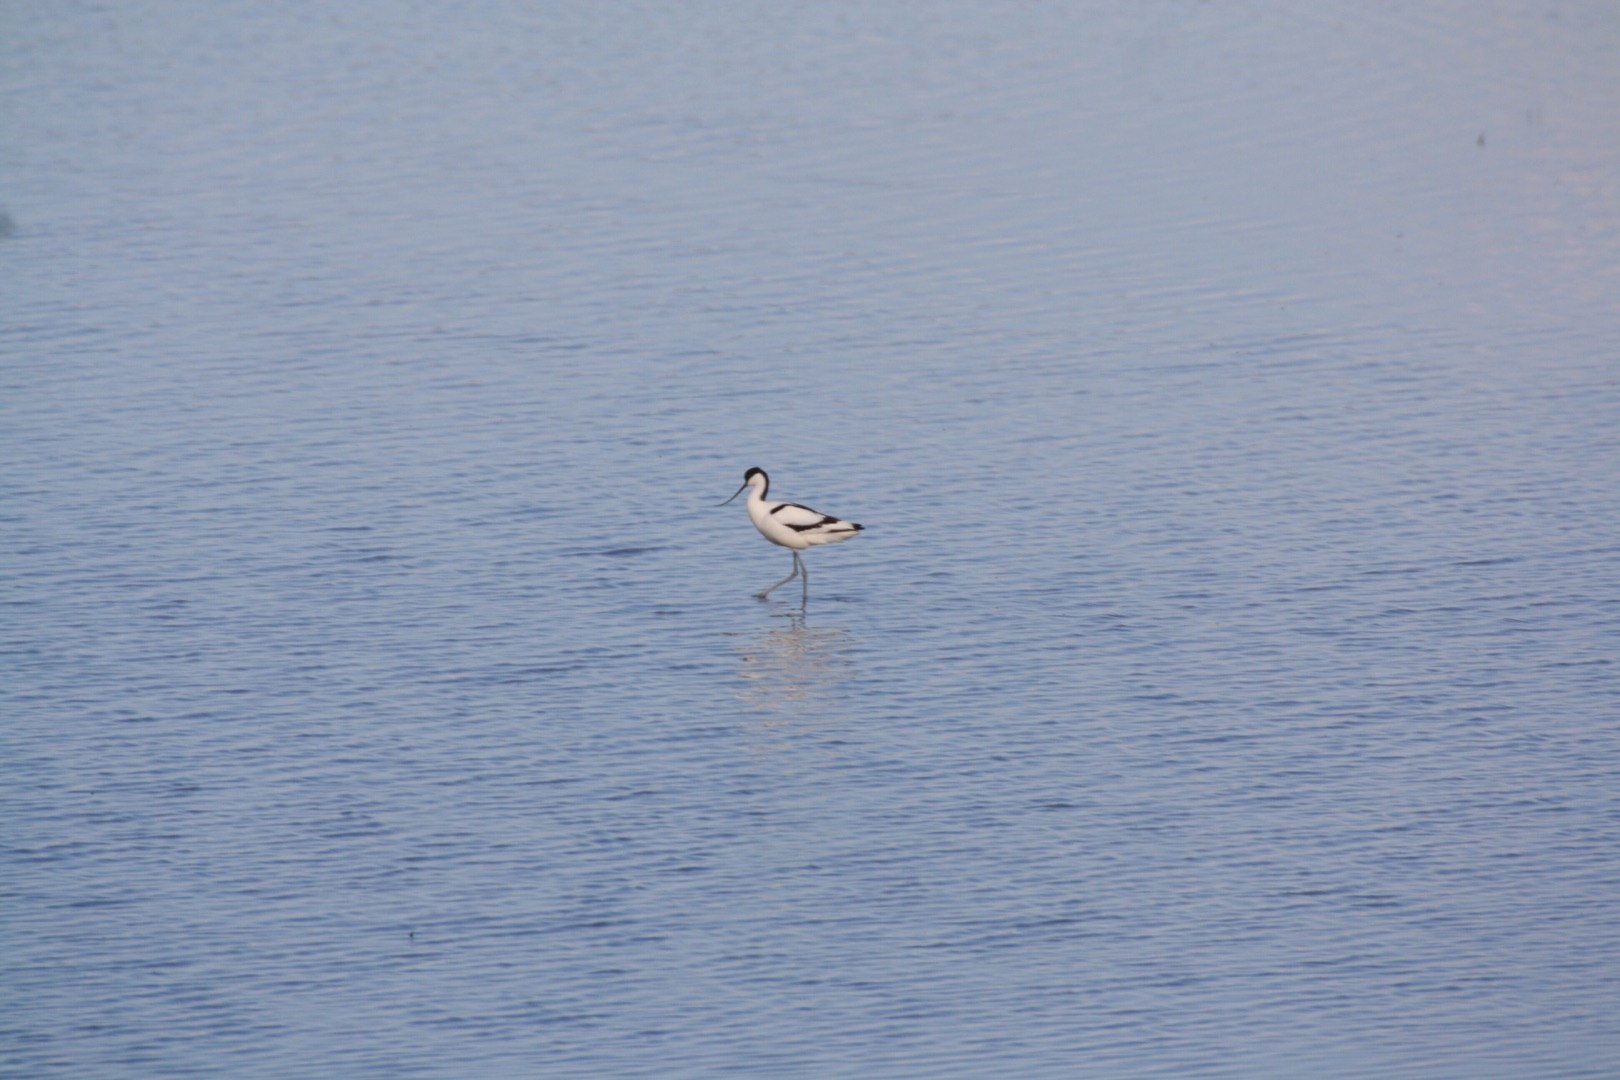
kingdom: Animalia
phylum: Chordata
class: Aves
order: Charadriiformes
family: Recurvirostridae
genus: Recurvirostra
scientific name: Recurvirostra avosetta
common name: Klyde
